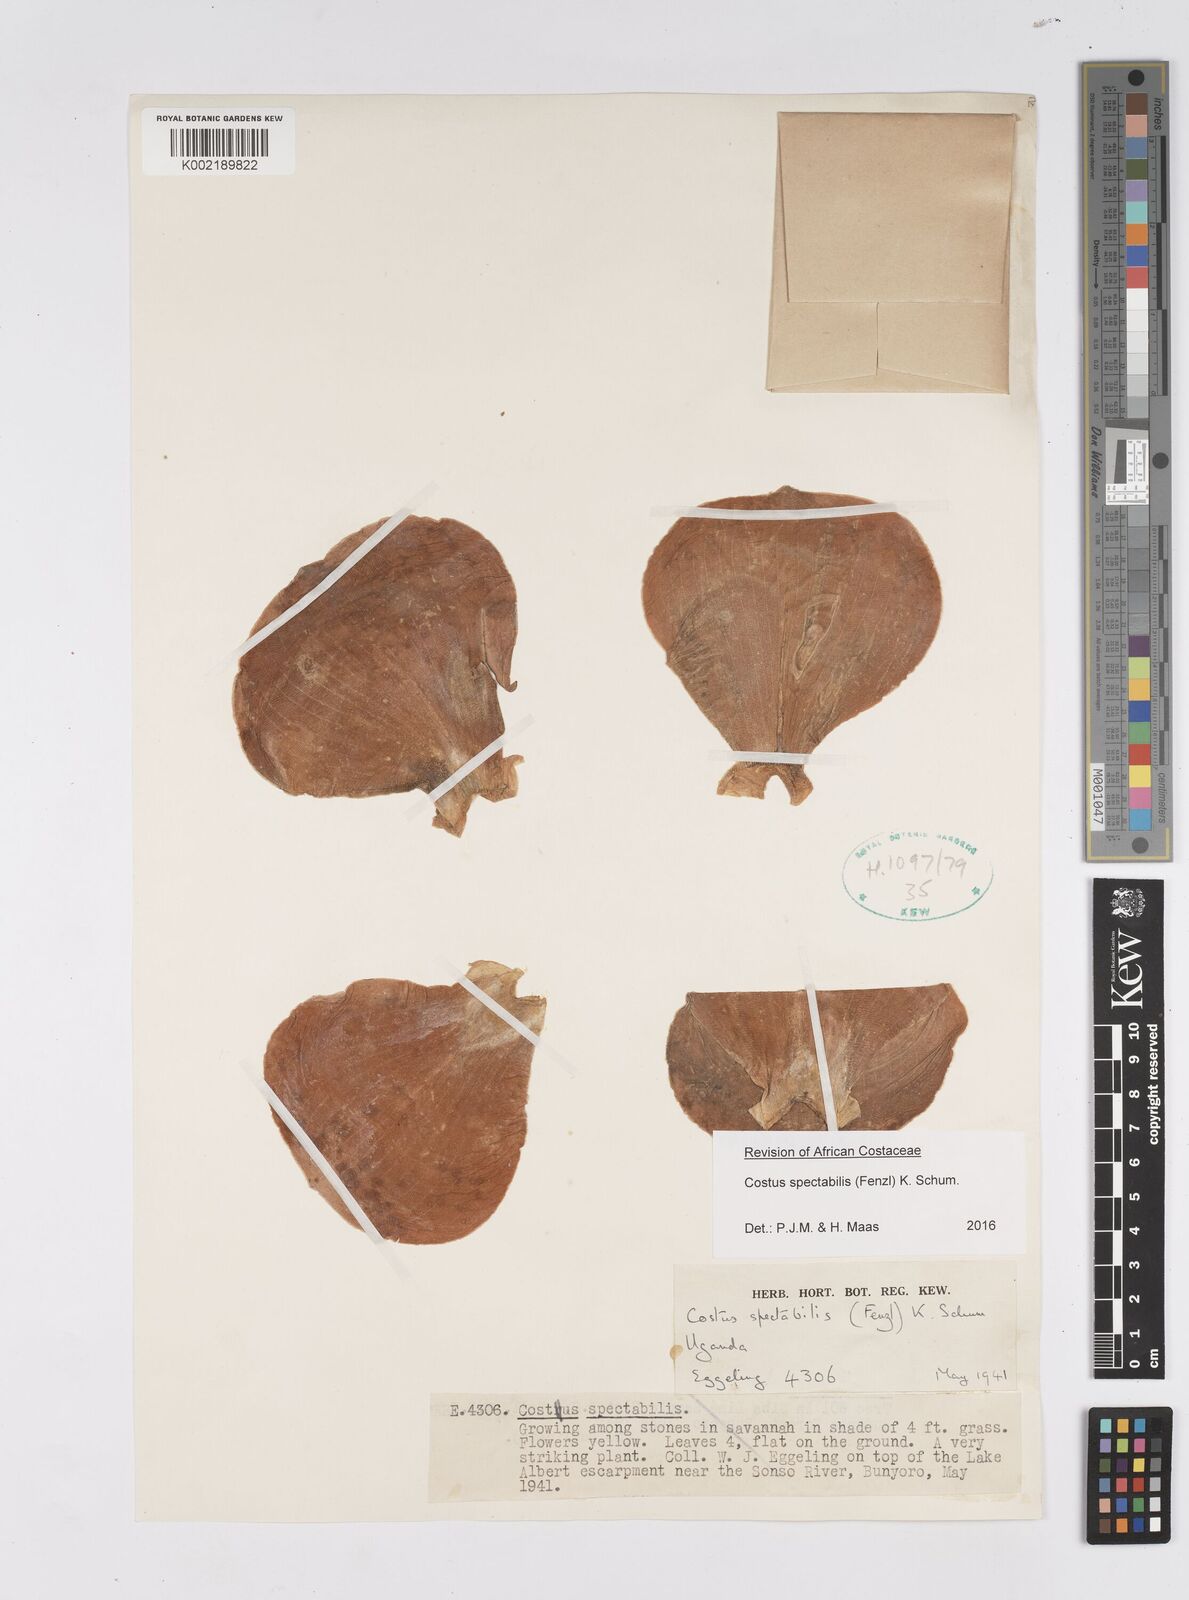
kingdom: Plantae
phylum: Tracheophyta
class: Liliopsida
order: Zingiberales
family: Costaceae
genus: Costus
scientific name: Costus spectabilis
